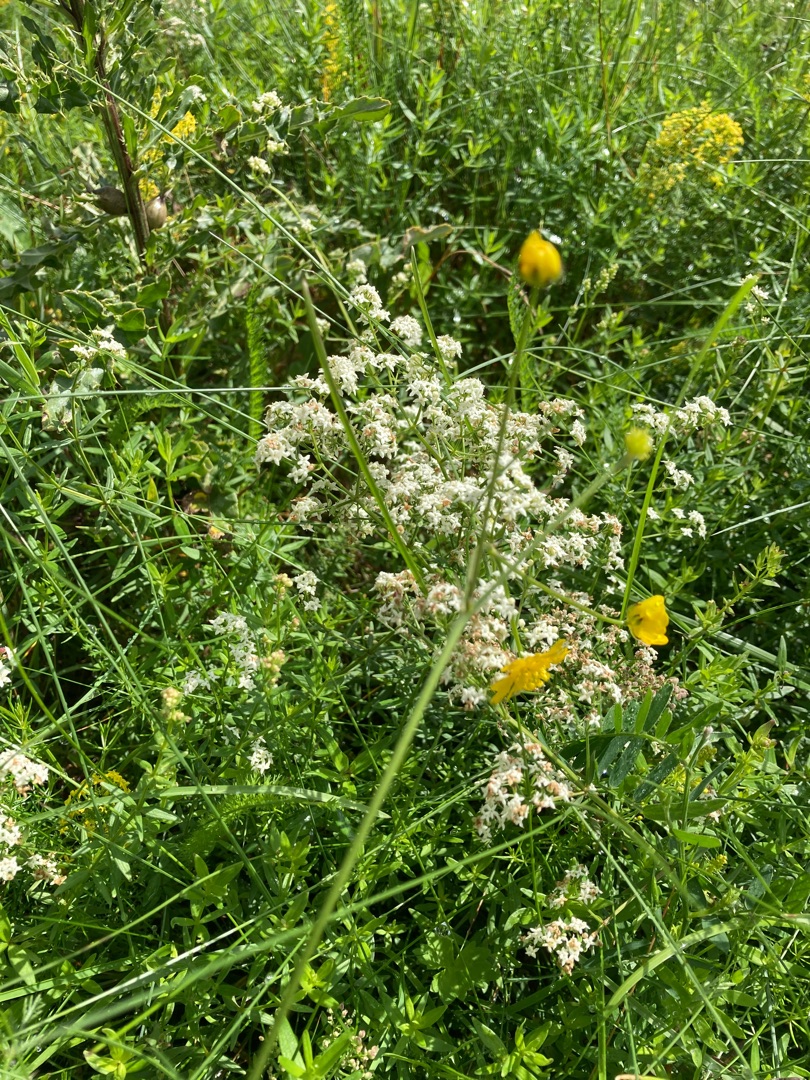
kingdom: Plantae
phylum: Tracheophyta
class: Magnoliopsida
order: Gentianales
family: Rubiaceae
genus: Galium
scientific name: Galium boreale
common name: Trenervet snerre
